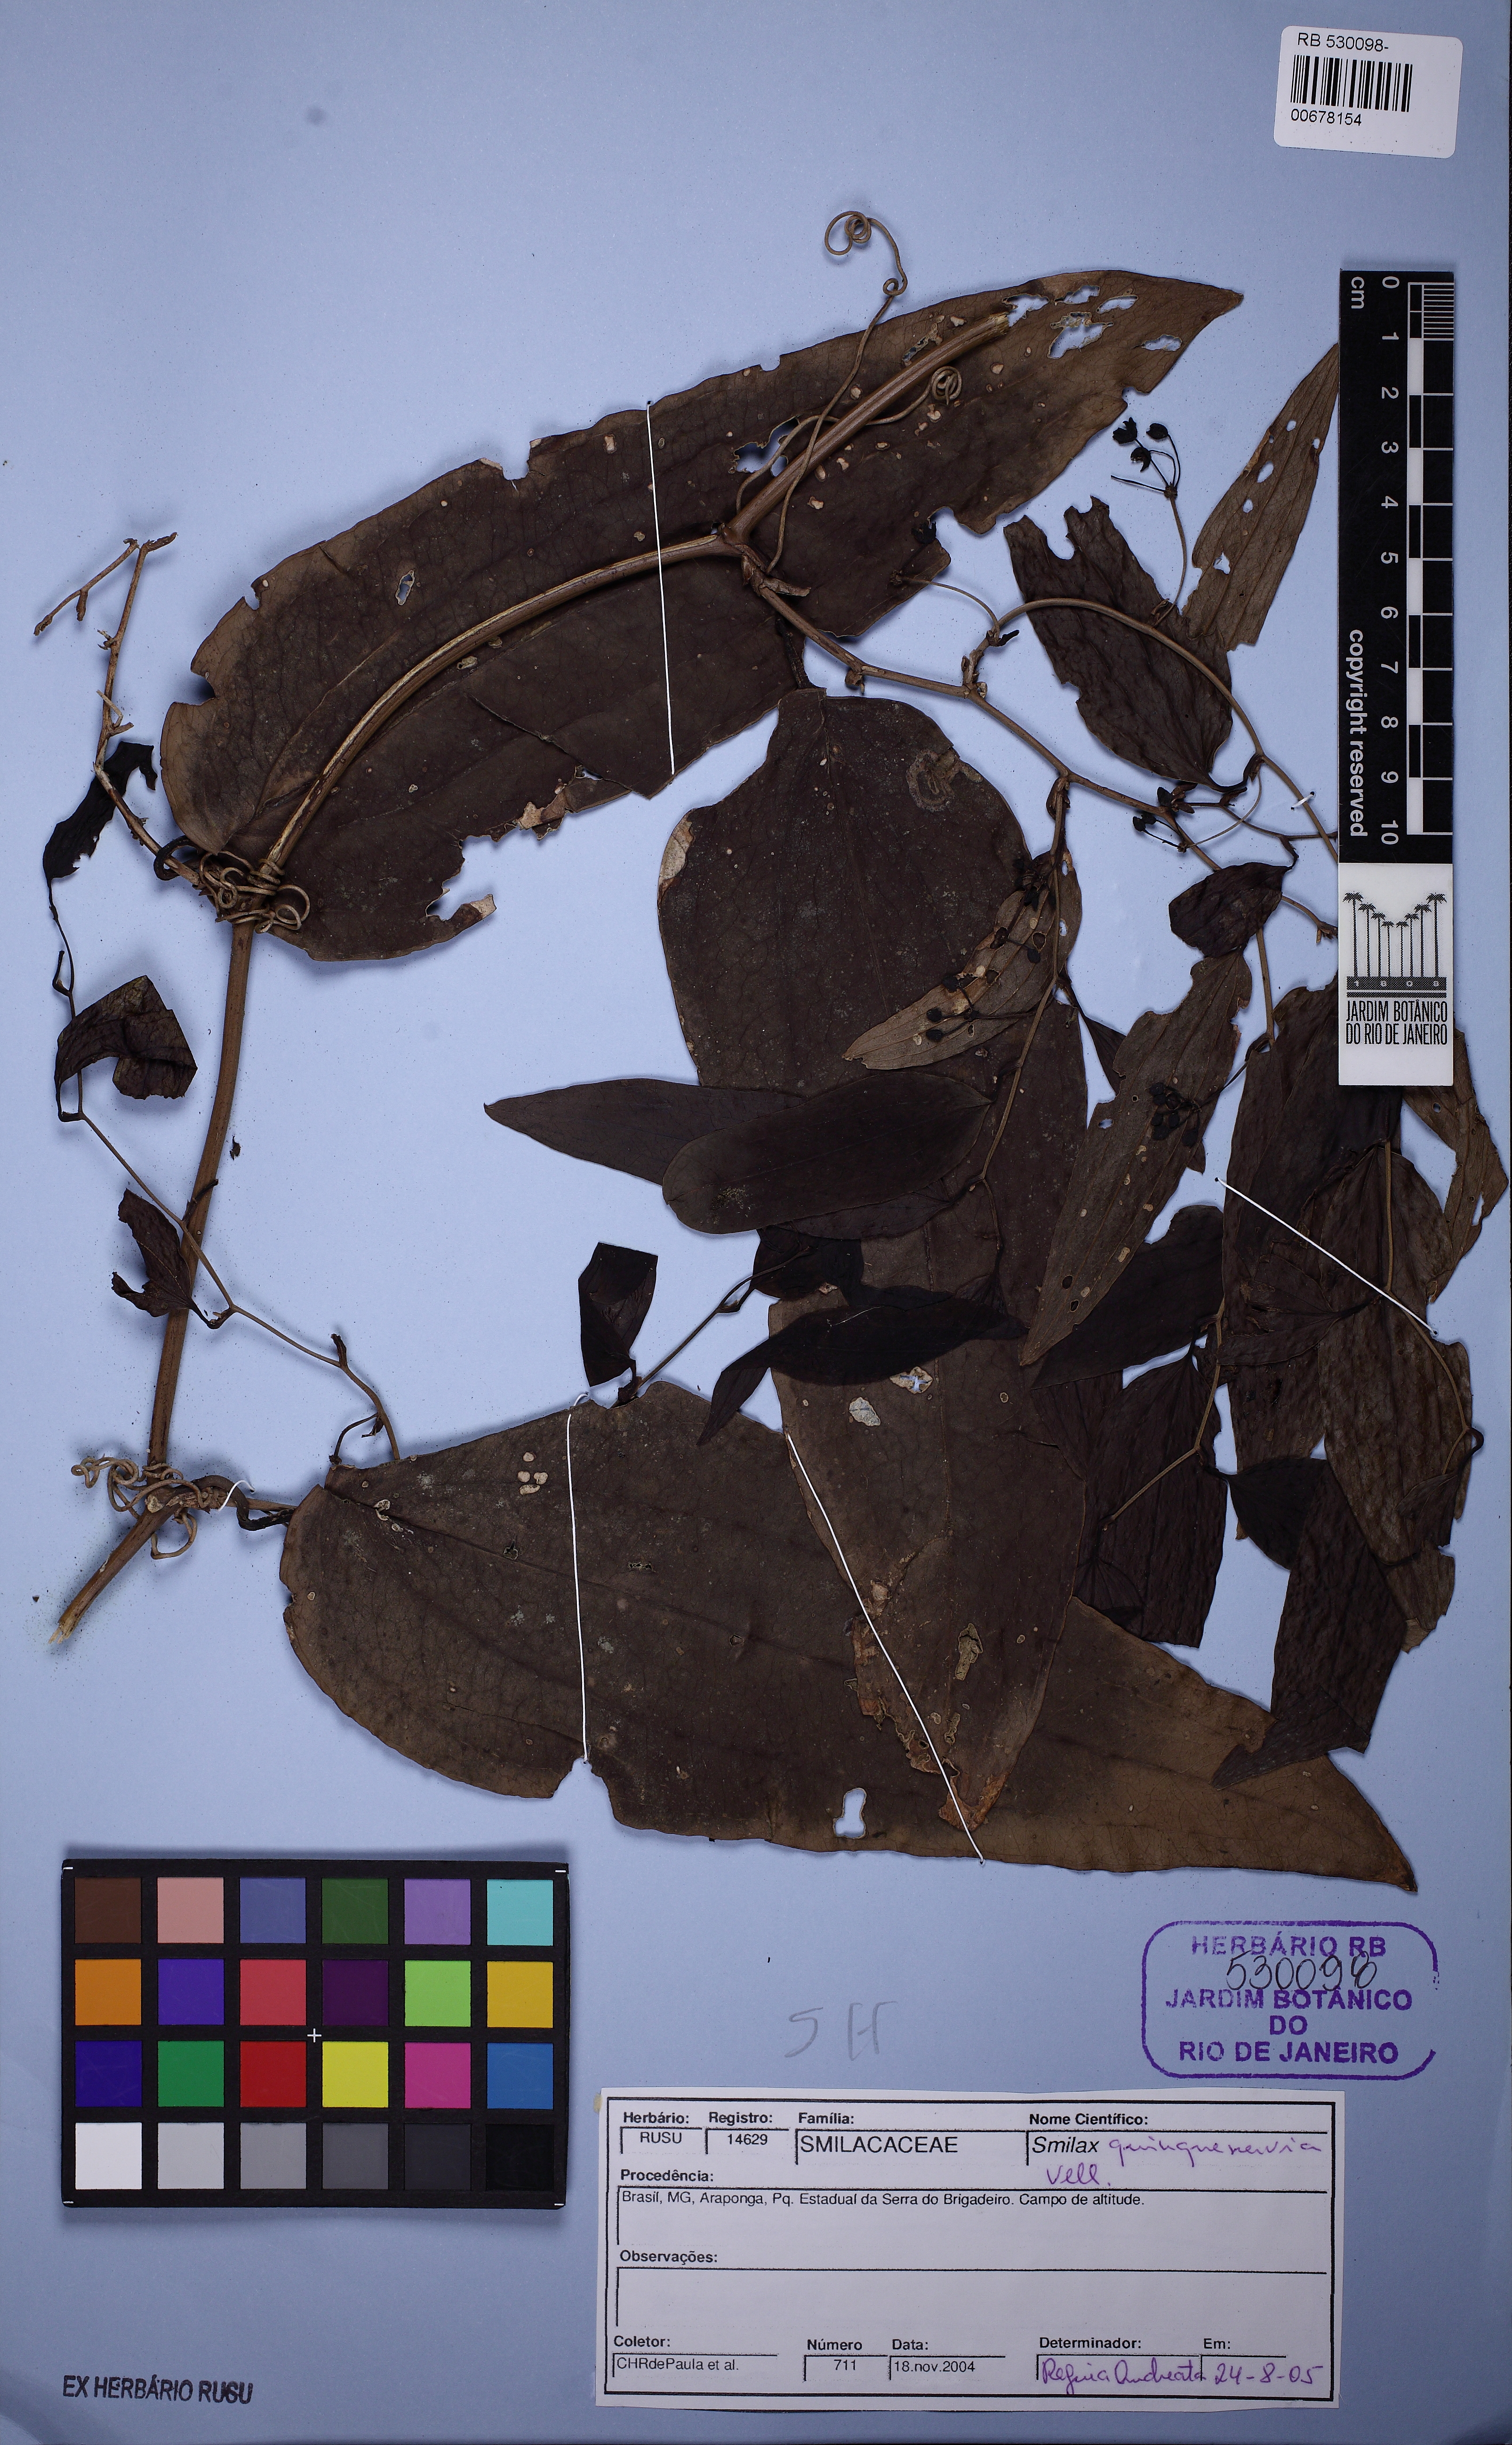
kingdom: Plantae
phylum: Tracheophyta
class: Magnoliopsida
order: Lamiales
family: Bignoniaceae
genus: Adenocalymma
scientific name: Adenocalymma dusenii
